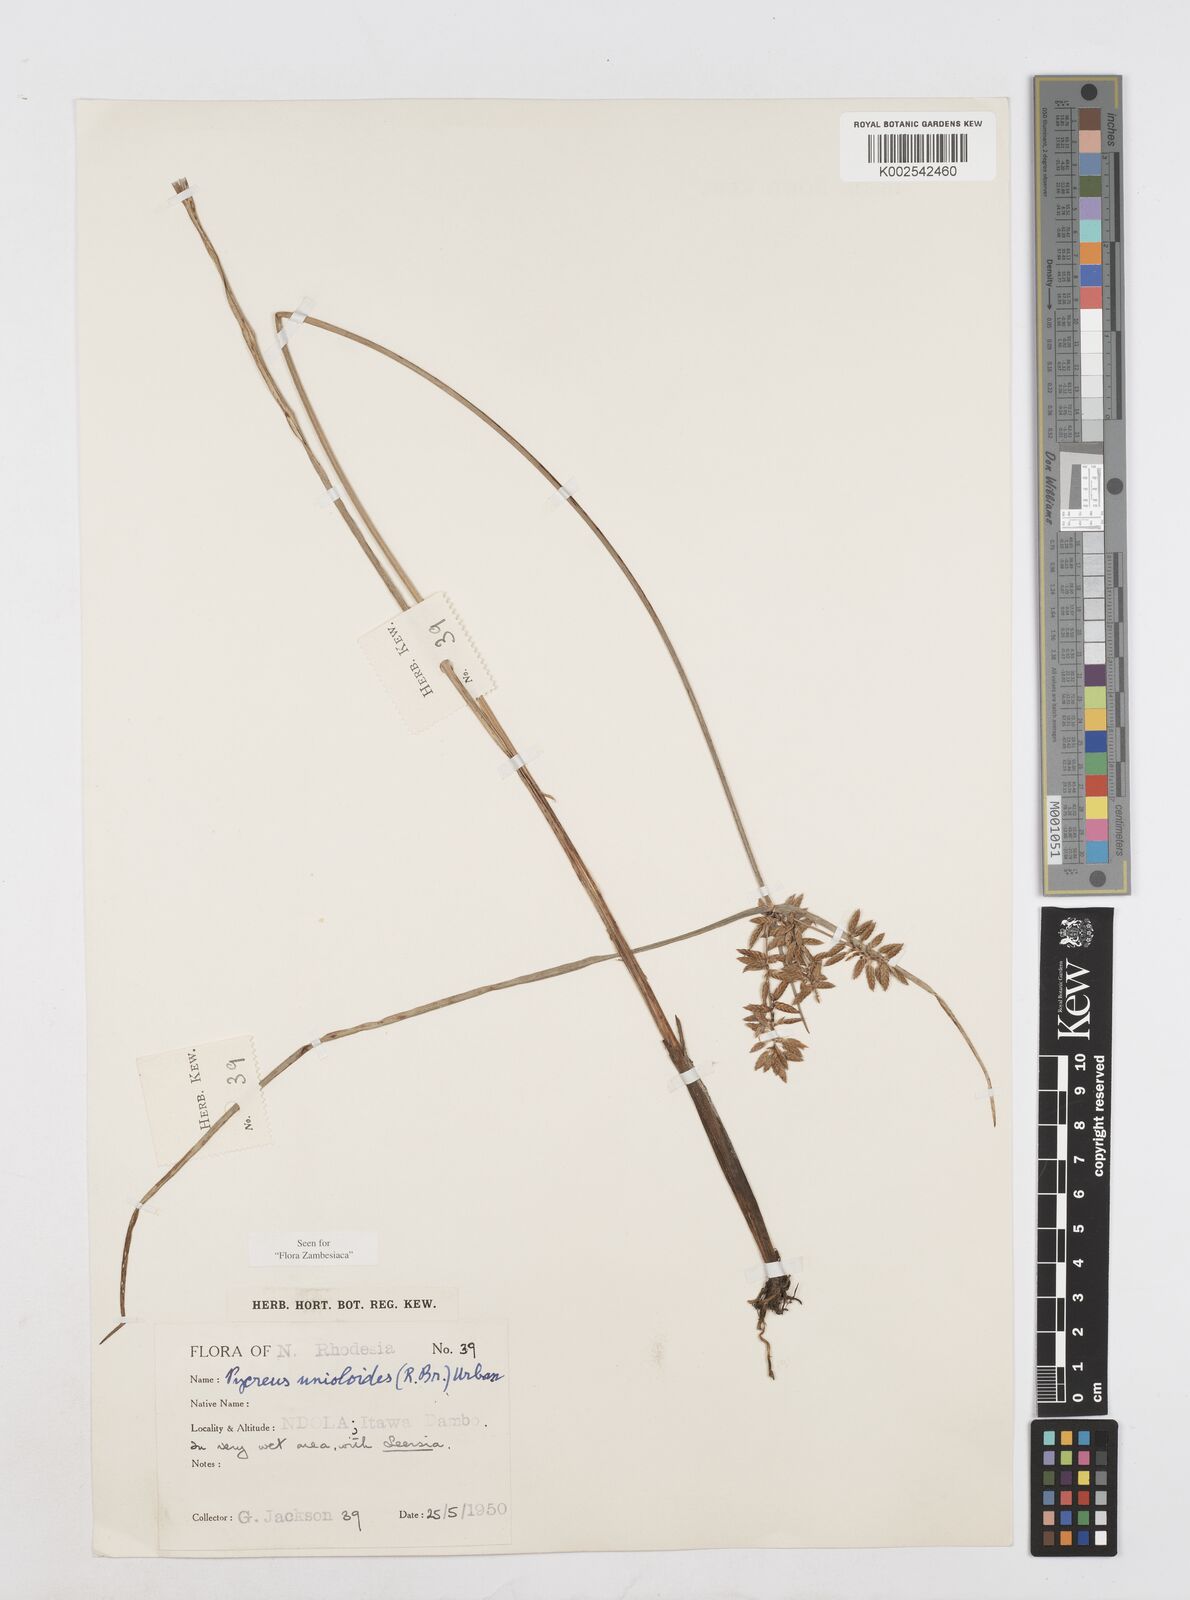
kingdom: Plantae
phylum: Tracheophyta
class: Liliopsida
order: Poales
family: Cyperaceae
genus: Cyperus
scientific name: Cyperus unioloides
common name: Uniola flatsedge
